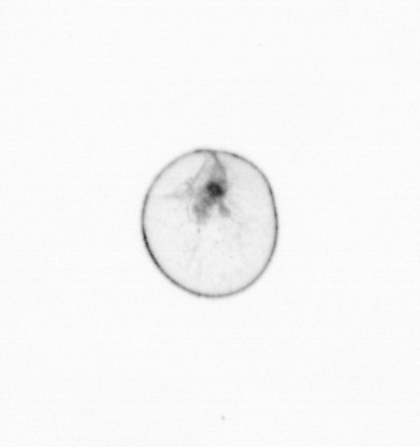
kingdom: Chromista
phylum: Myzozoa
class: Dinophyceae
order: Noctilucales
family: Noctilucaceae
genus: Noctiluca
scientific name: Noctiluca scintillans
